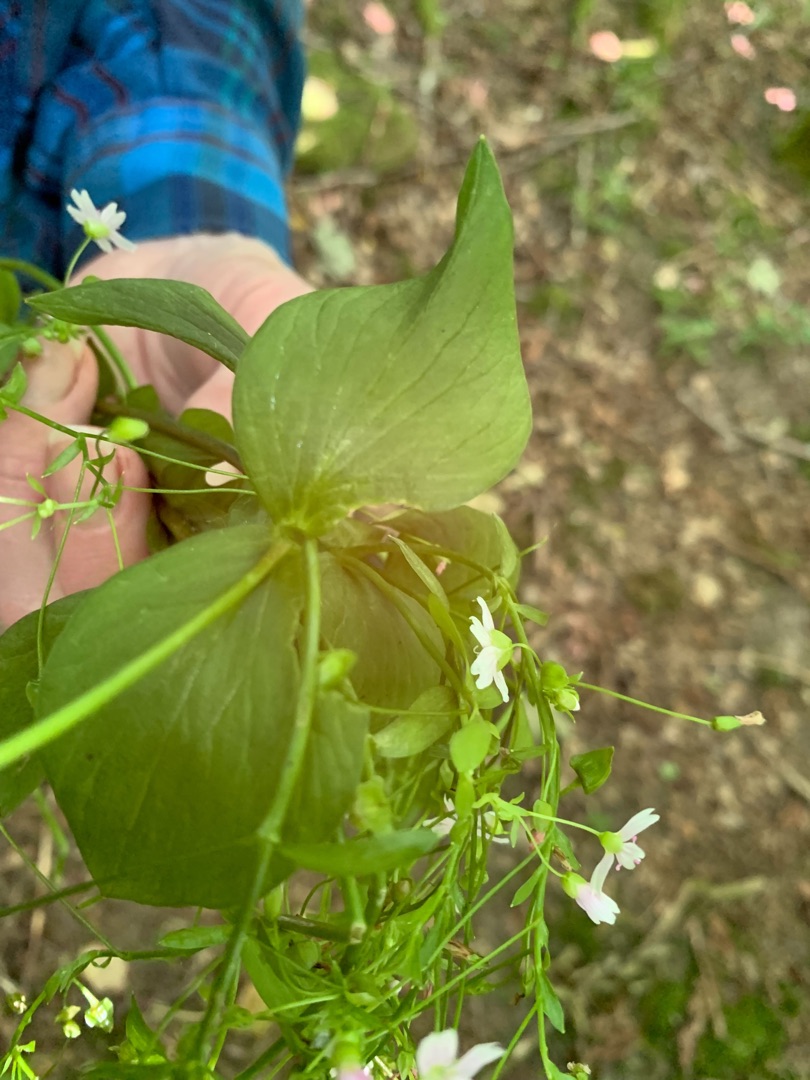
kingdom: Plantae
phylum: Tracheophyta
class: Magnoliopsida
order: Caryophyllales
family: Montiaceae
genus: Claytonia
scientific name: Claytonia sibirica
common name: Sibirisk vinterportulak
